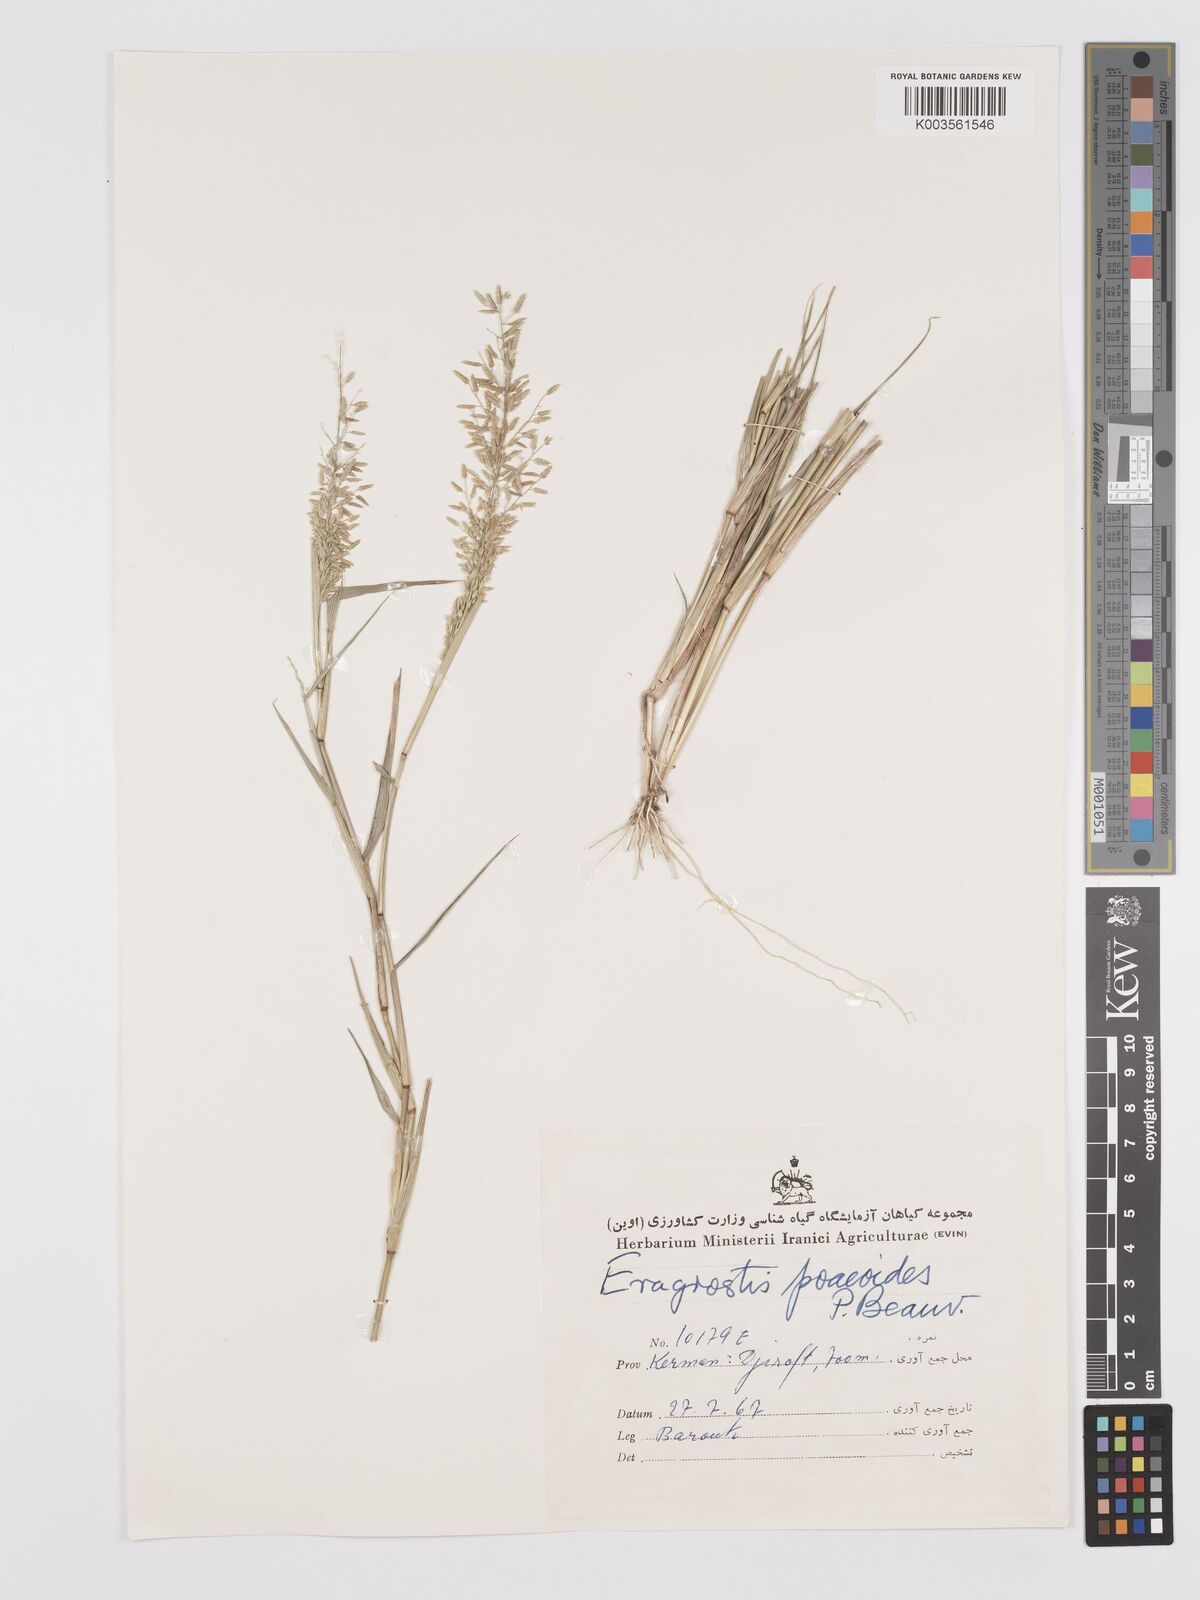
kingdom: Plantae
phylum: Tracheophyta
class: Liliopsida
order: Poales
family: Poaceae
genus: Eragrostis
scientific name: Eragrostis minor
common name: Small love-grass
